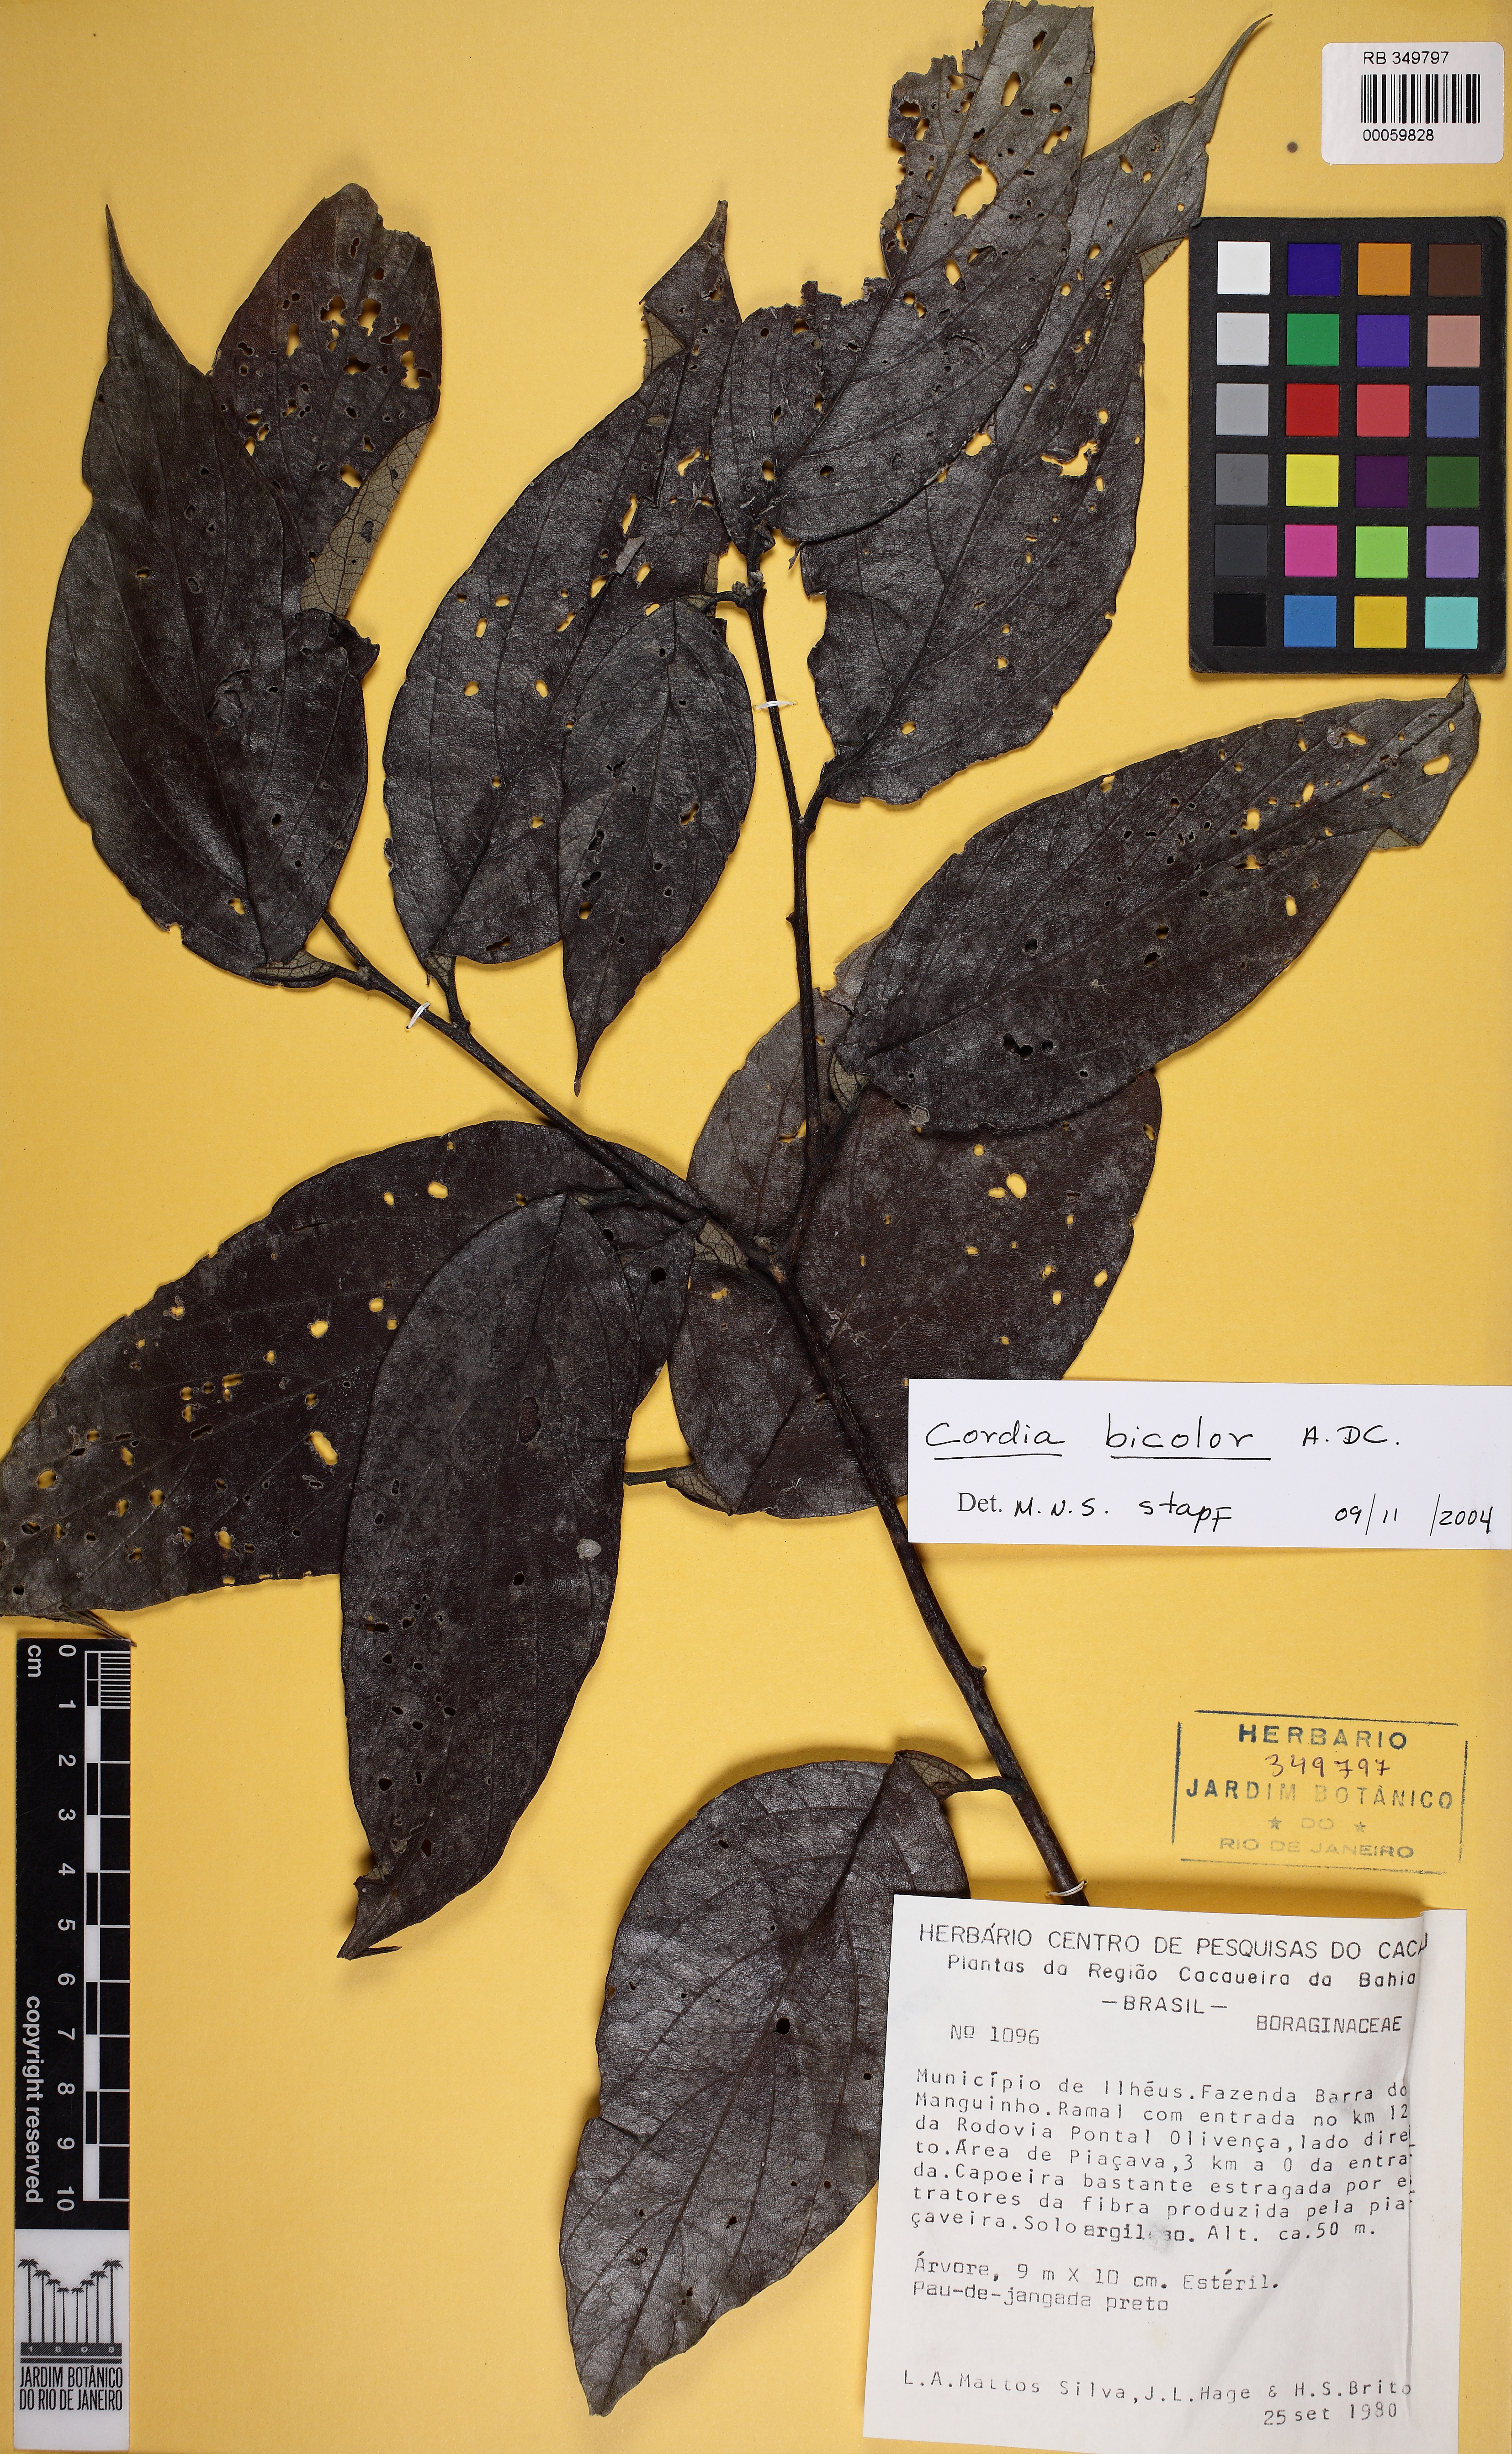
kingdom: Plantae
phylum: Tracheophyta
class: Magnoliopsida
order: Boraginales
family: Cordiaceae
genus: Cordia
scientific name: Cordia alliodora
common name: Spanish elm
